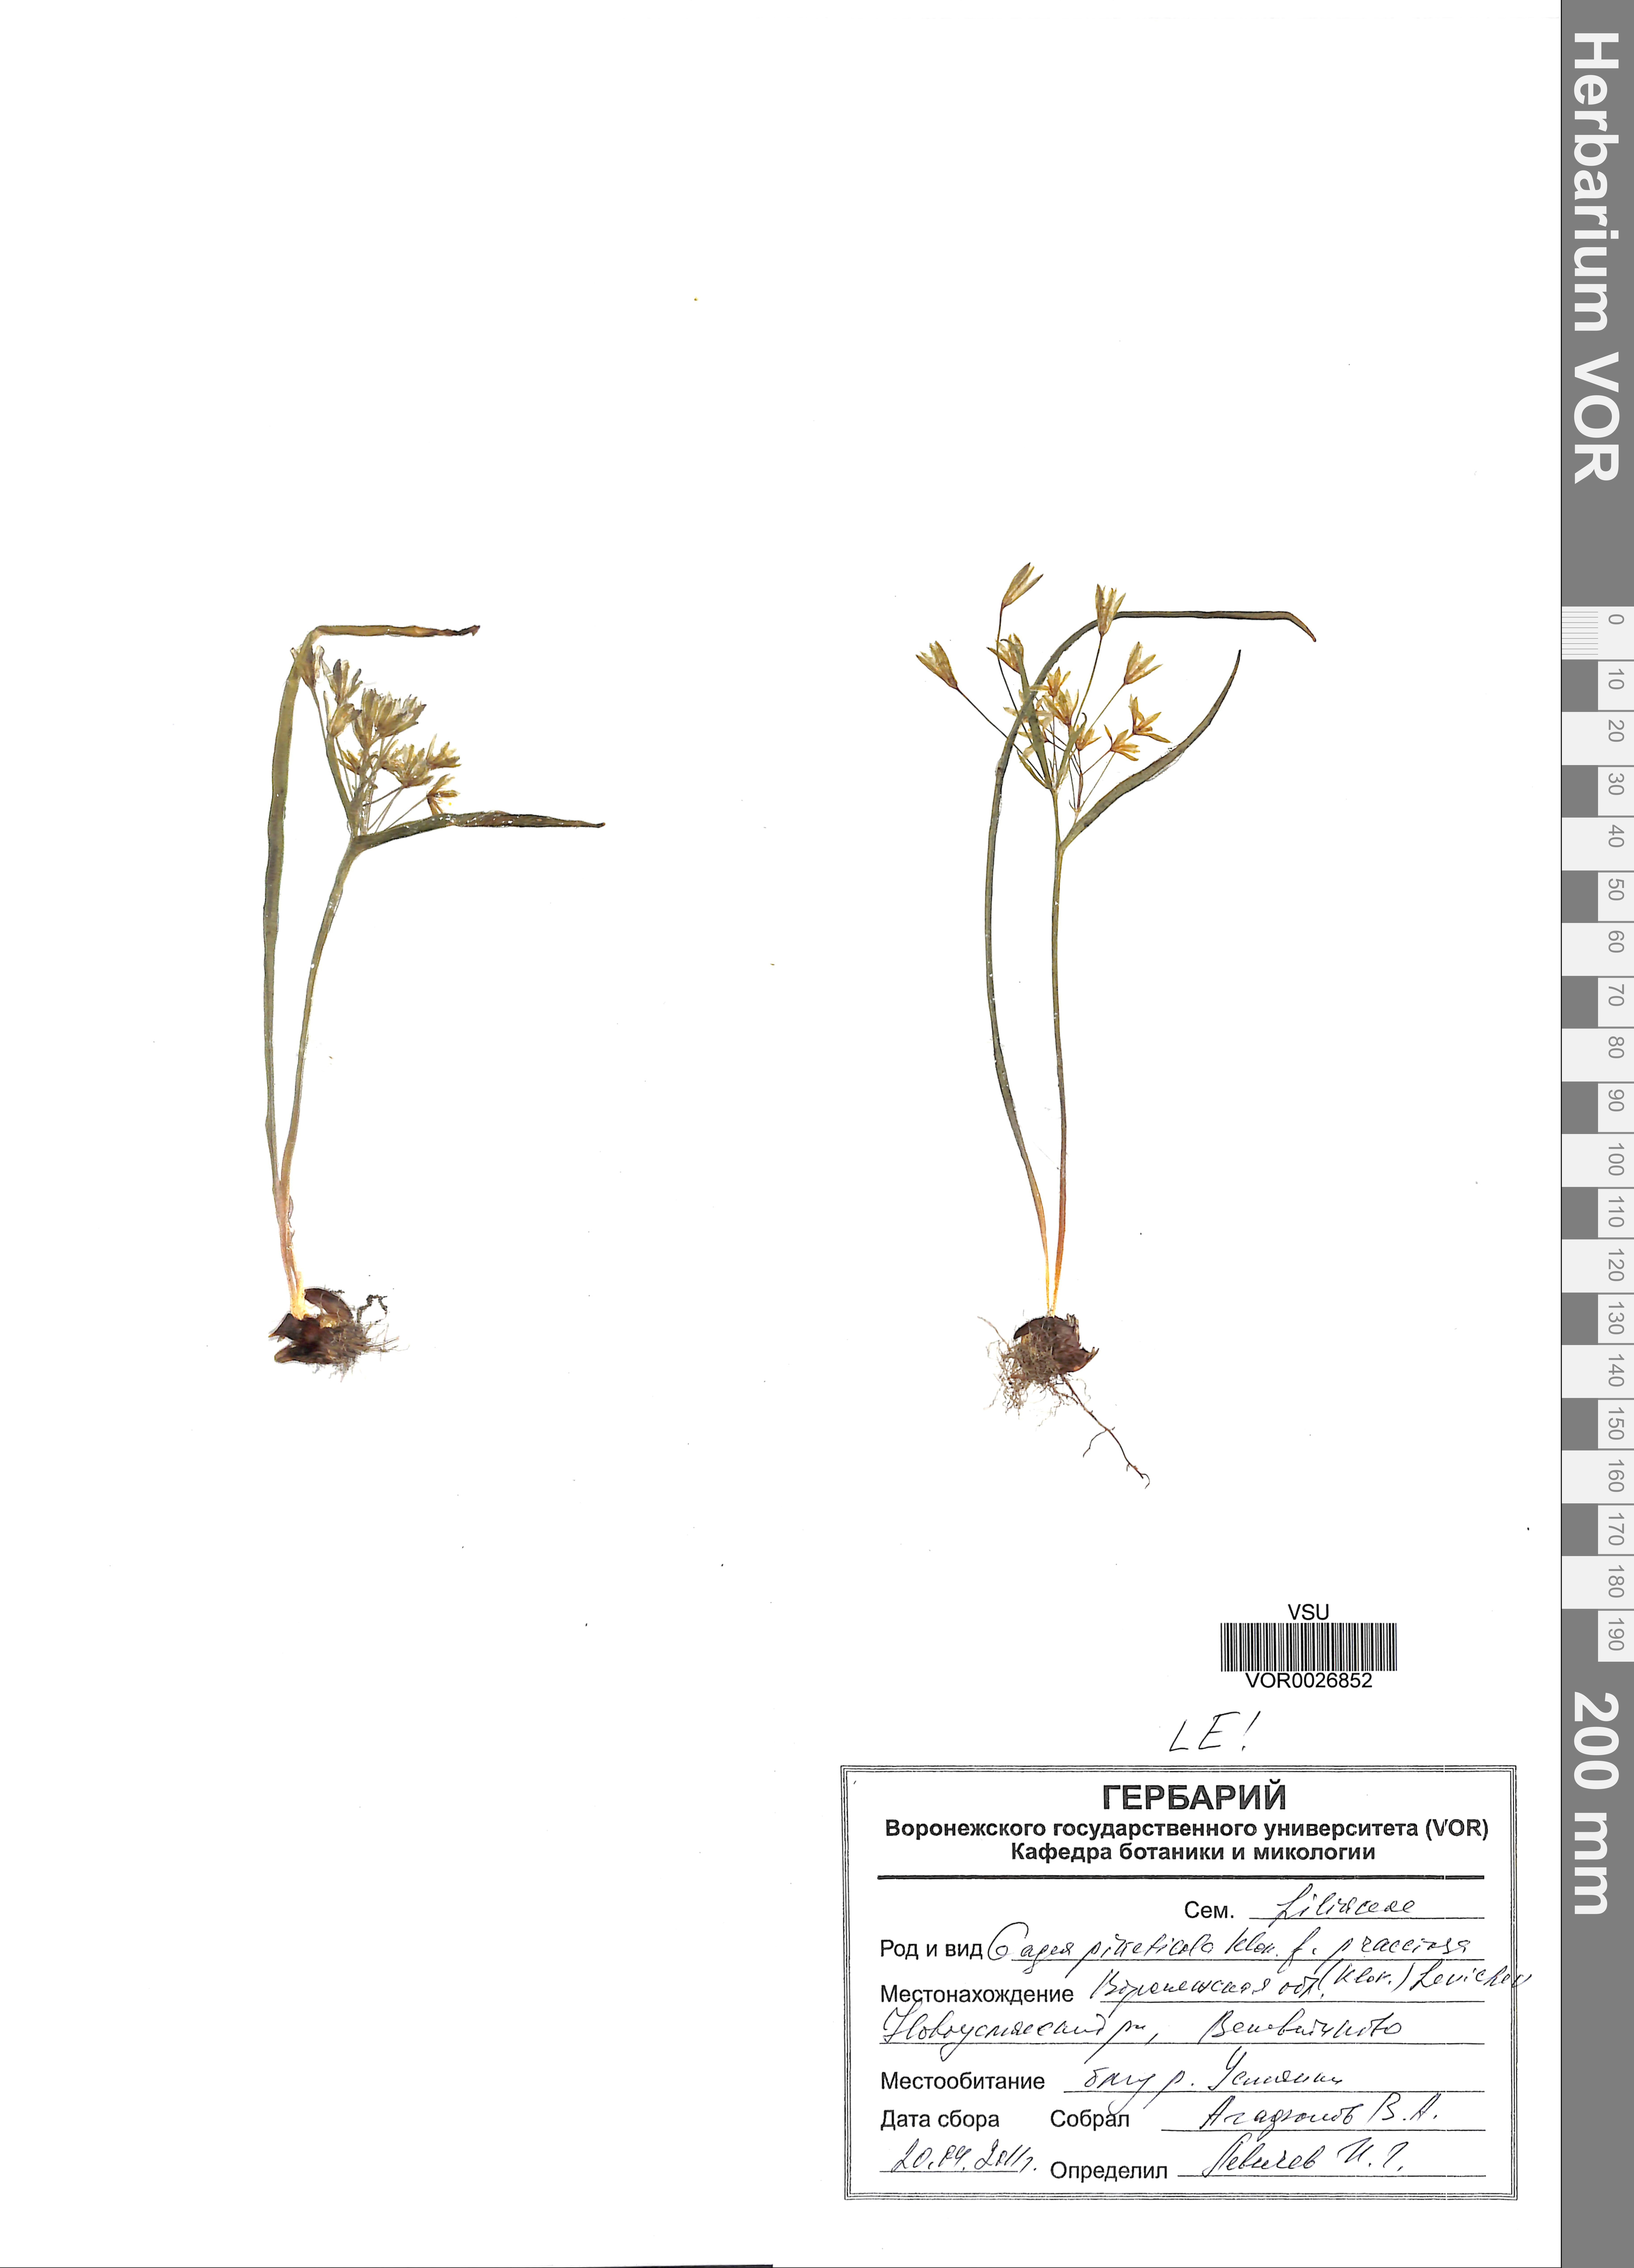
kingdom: Plantae
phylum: Tracheophyta
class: Liliopsida
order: Liliales
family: Liliaceae
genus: Gagea
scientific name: Gagea pusilla
